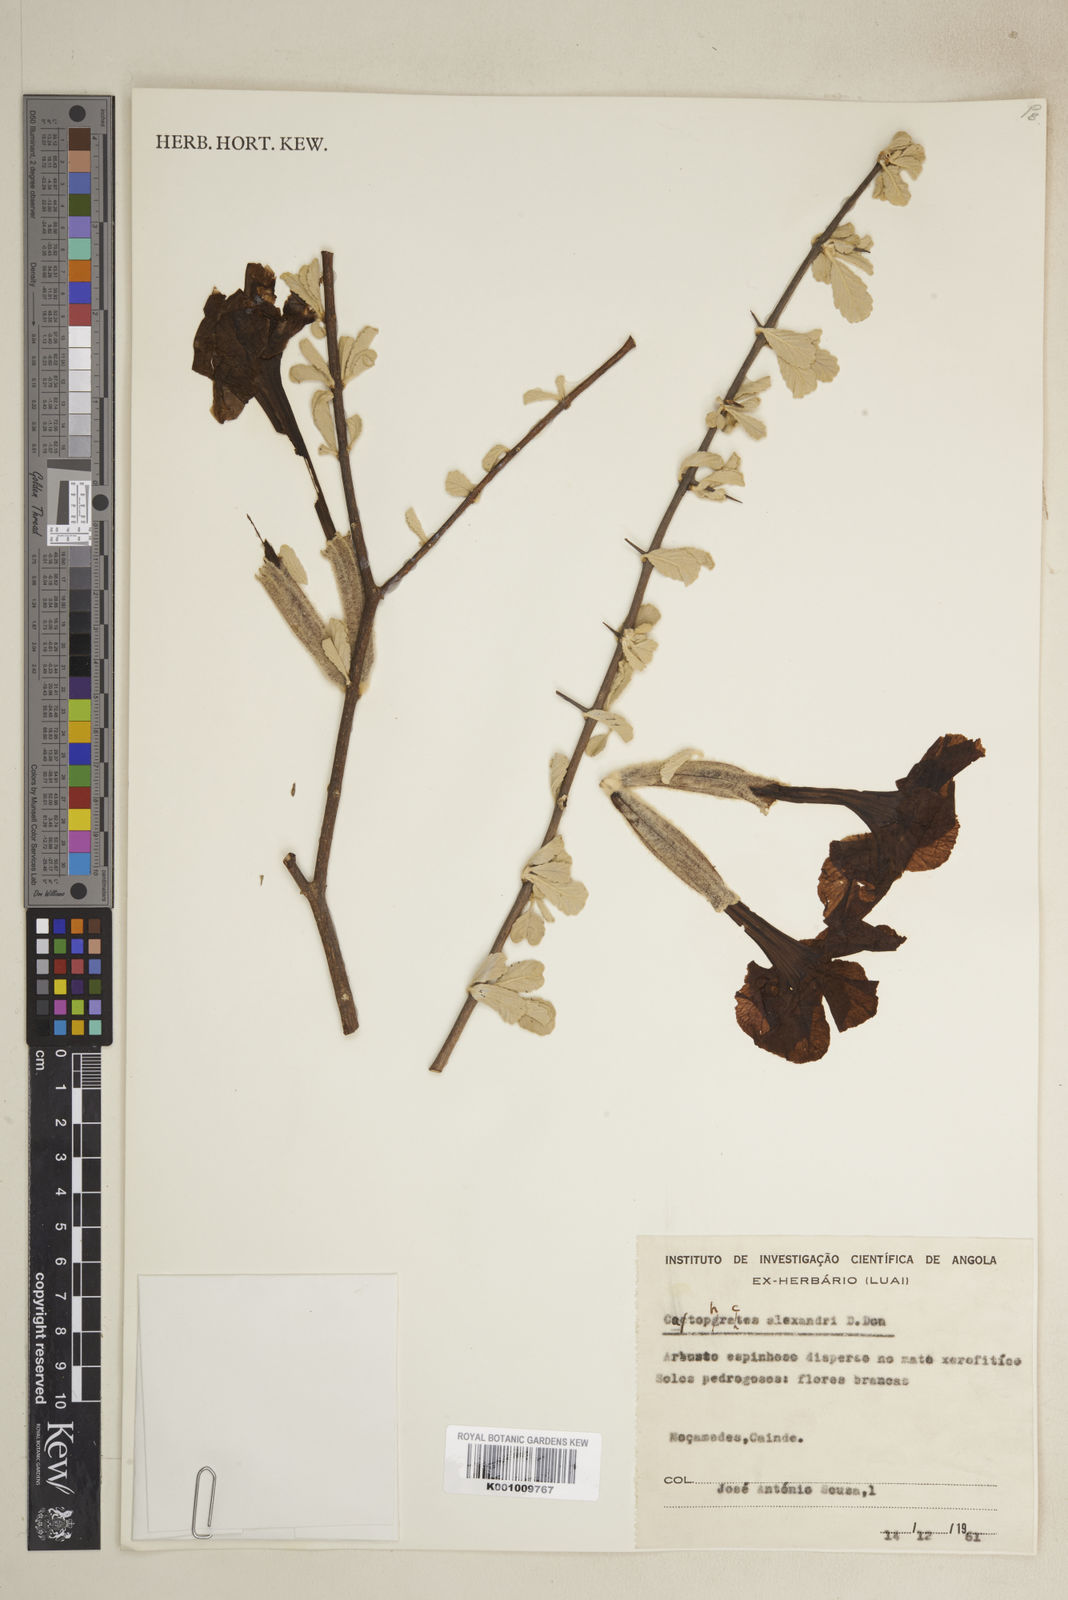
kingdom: Plantae
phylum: Tracheophyta
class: Magnoliopsida
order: Lamiales
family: Bignoniaceae
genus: Catophractes
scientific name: Catophractes alexandri
